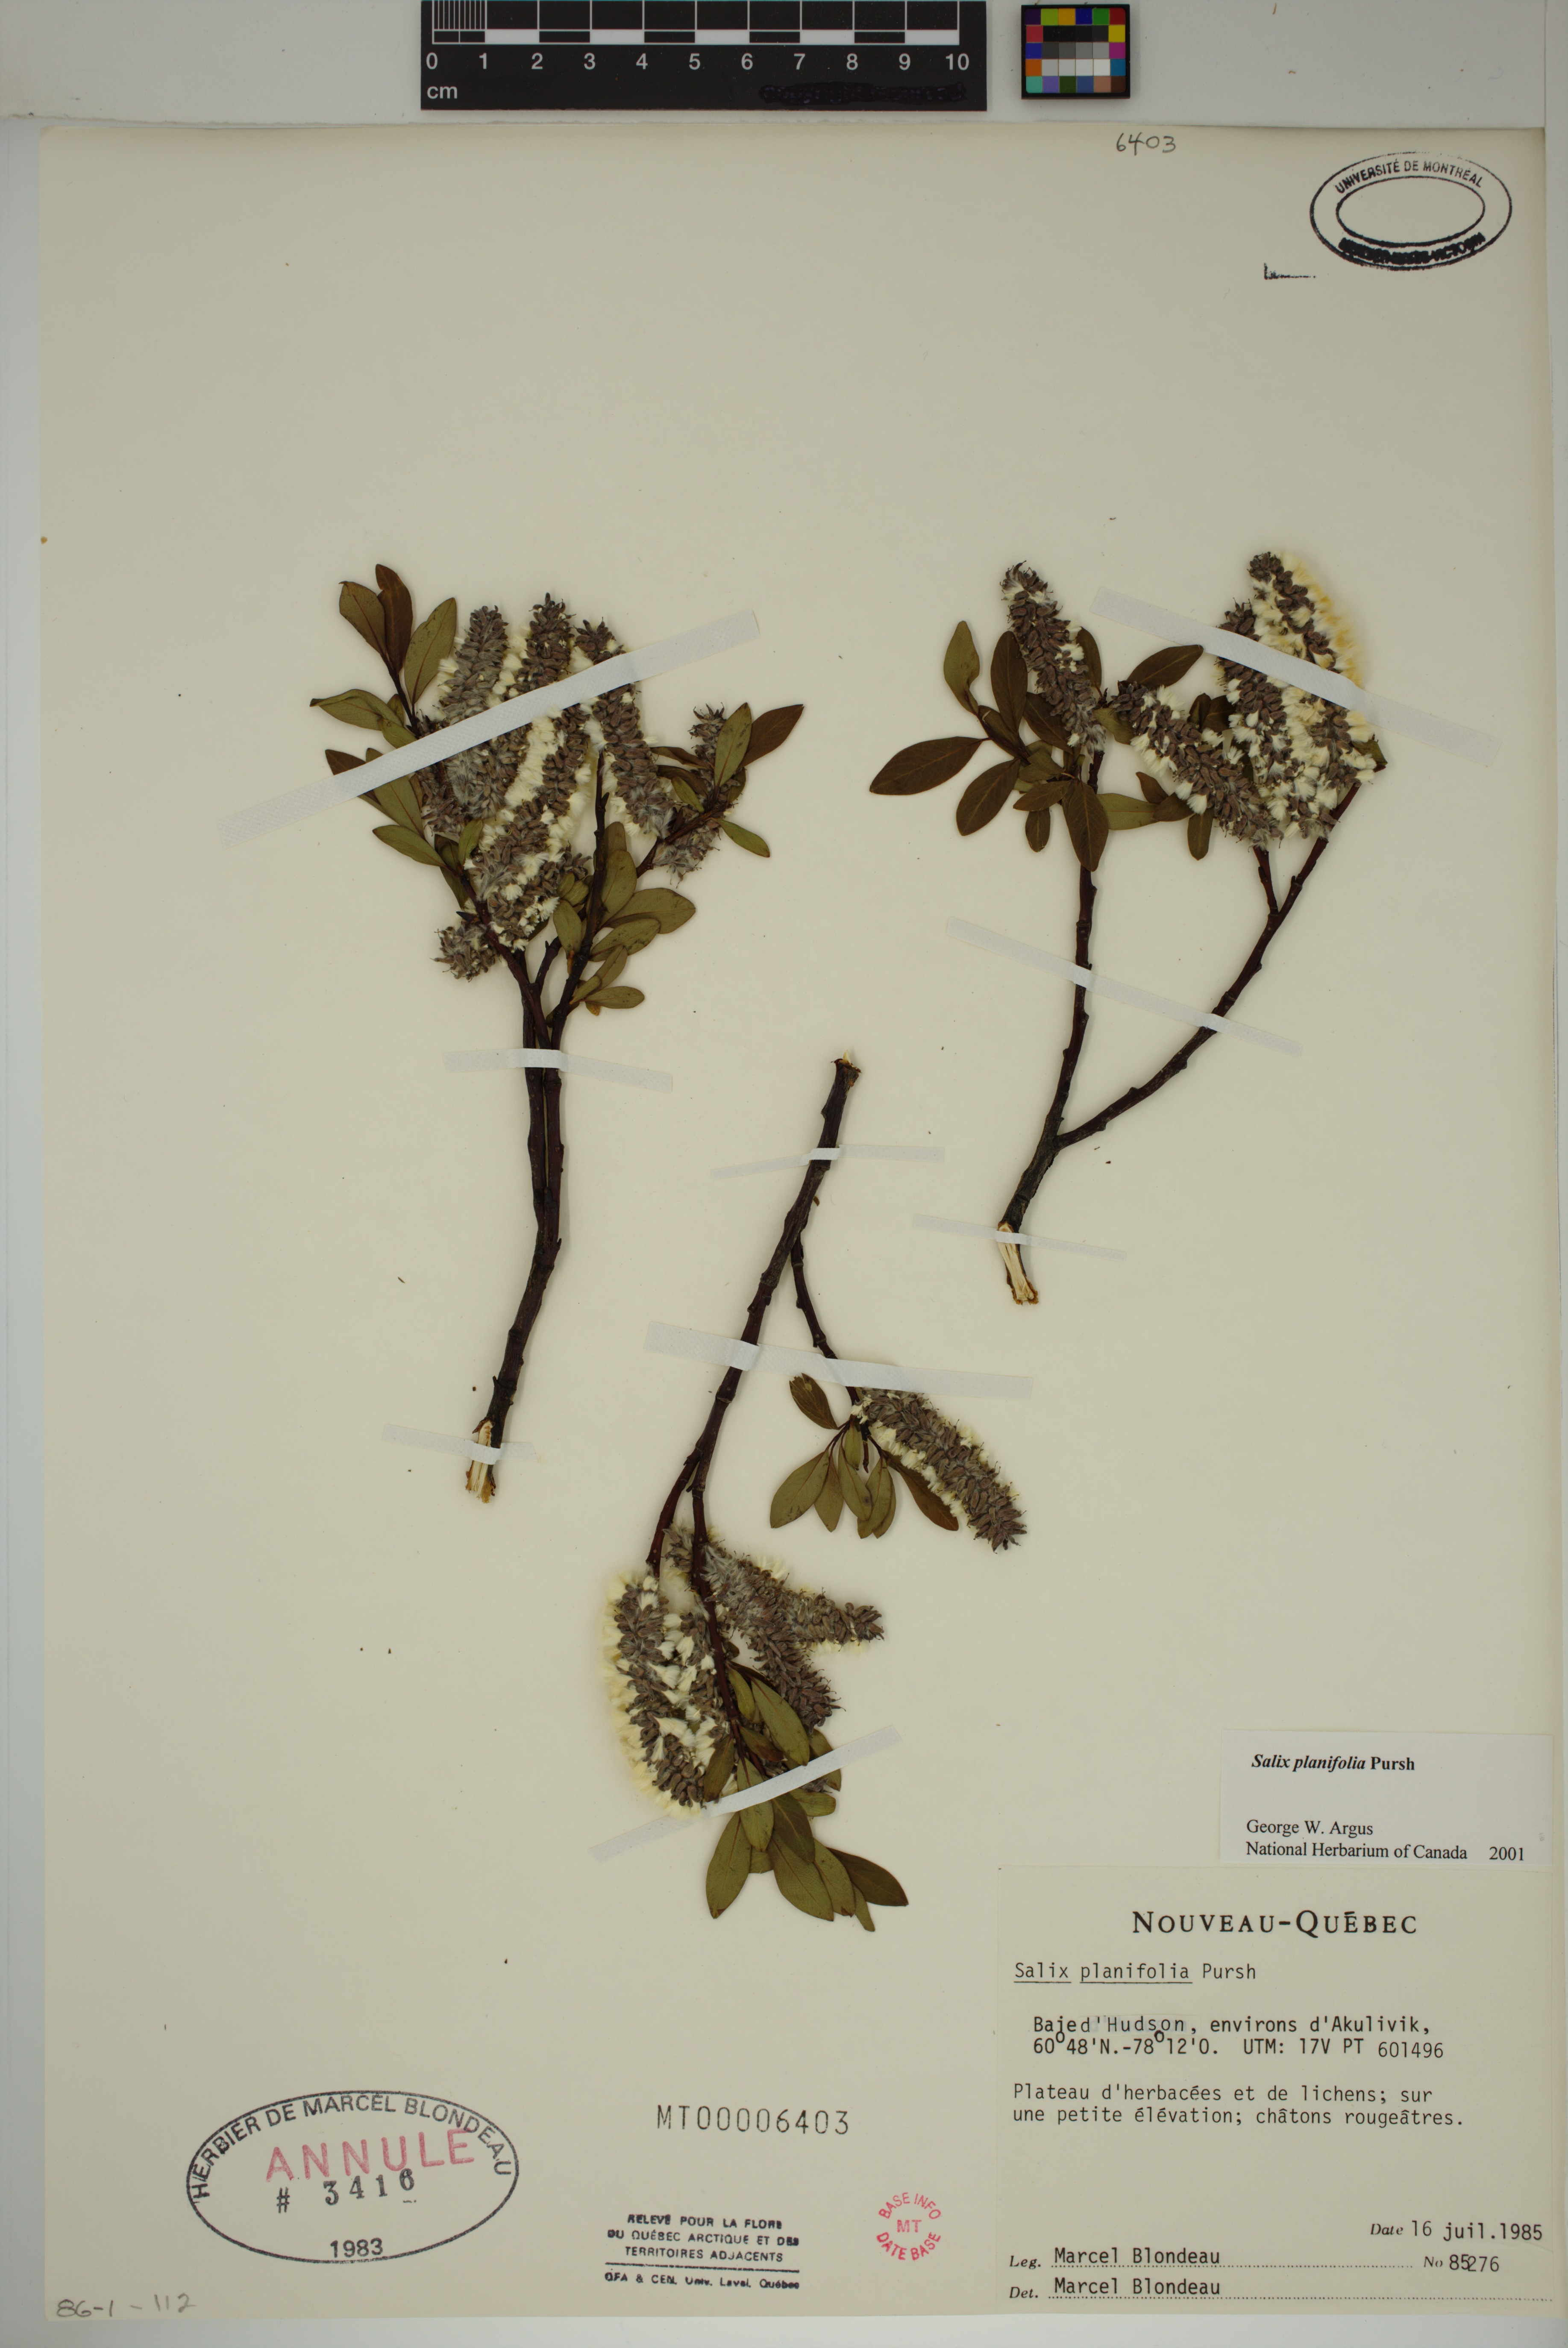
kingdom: Plantae
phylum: Tracheophyta
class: Magnoliopsida
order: Malpighiales
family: Salicaceae
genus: Salix
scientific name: Salix planifolia
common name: Mountain willow
